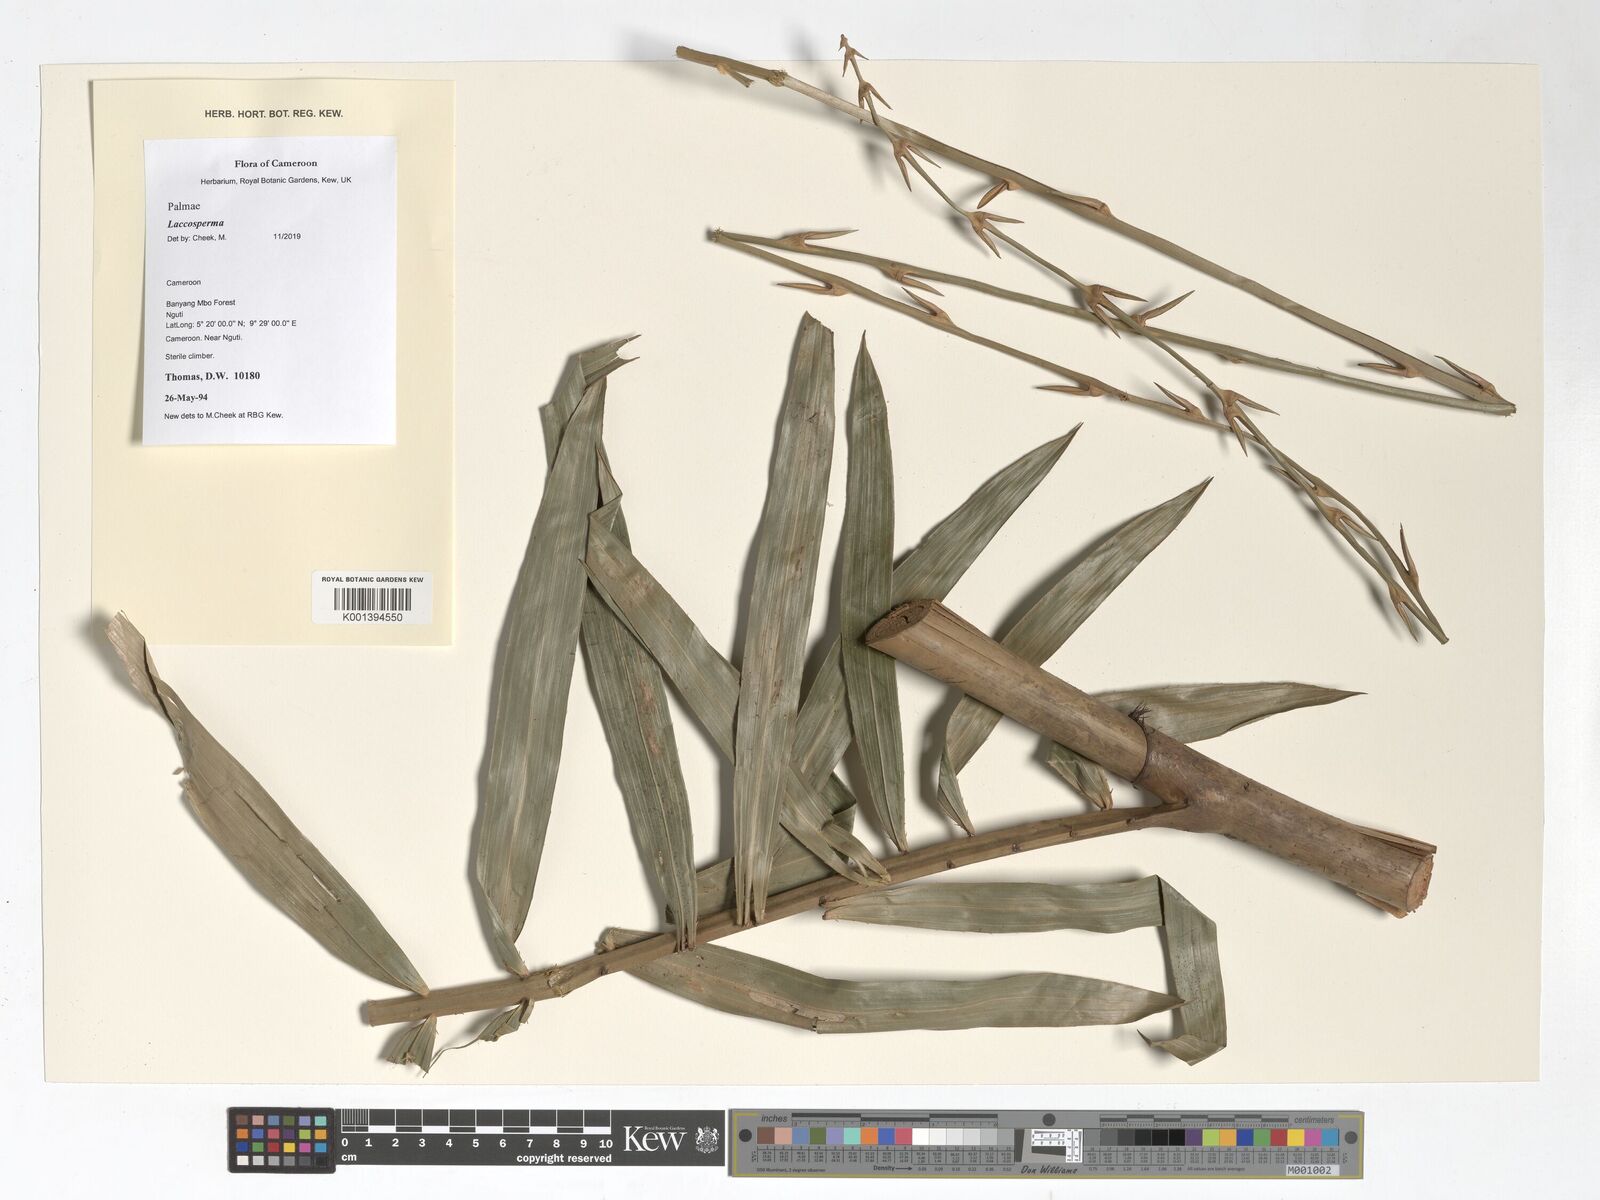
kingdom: Plantae
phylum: Tracheophyta
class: Liliopsida
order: Arecales
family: Arecaceae
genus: Laccosperma
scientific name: Laccosperma
